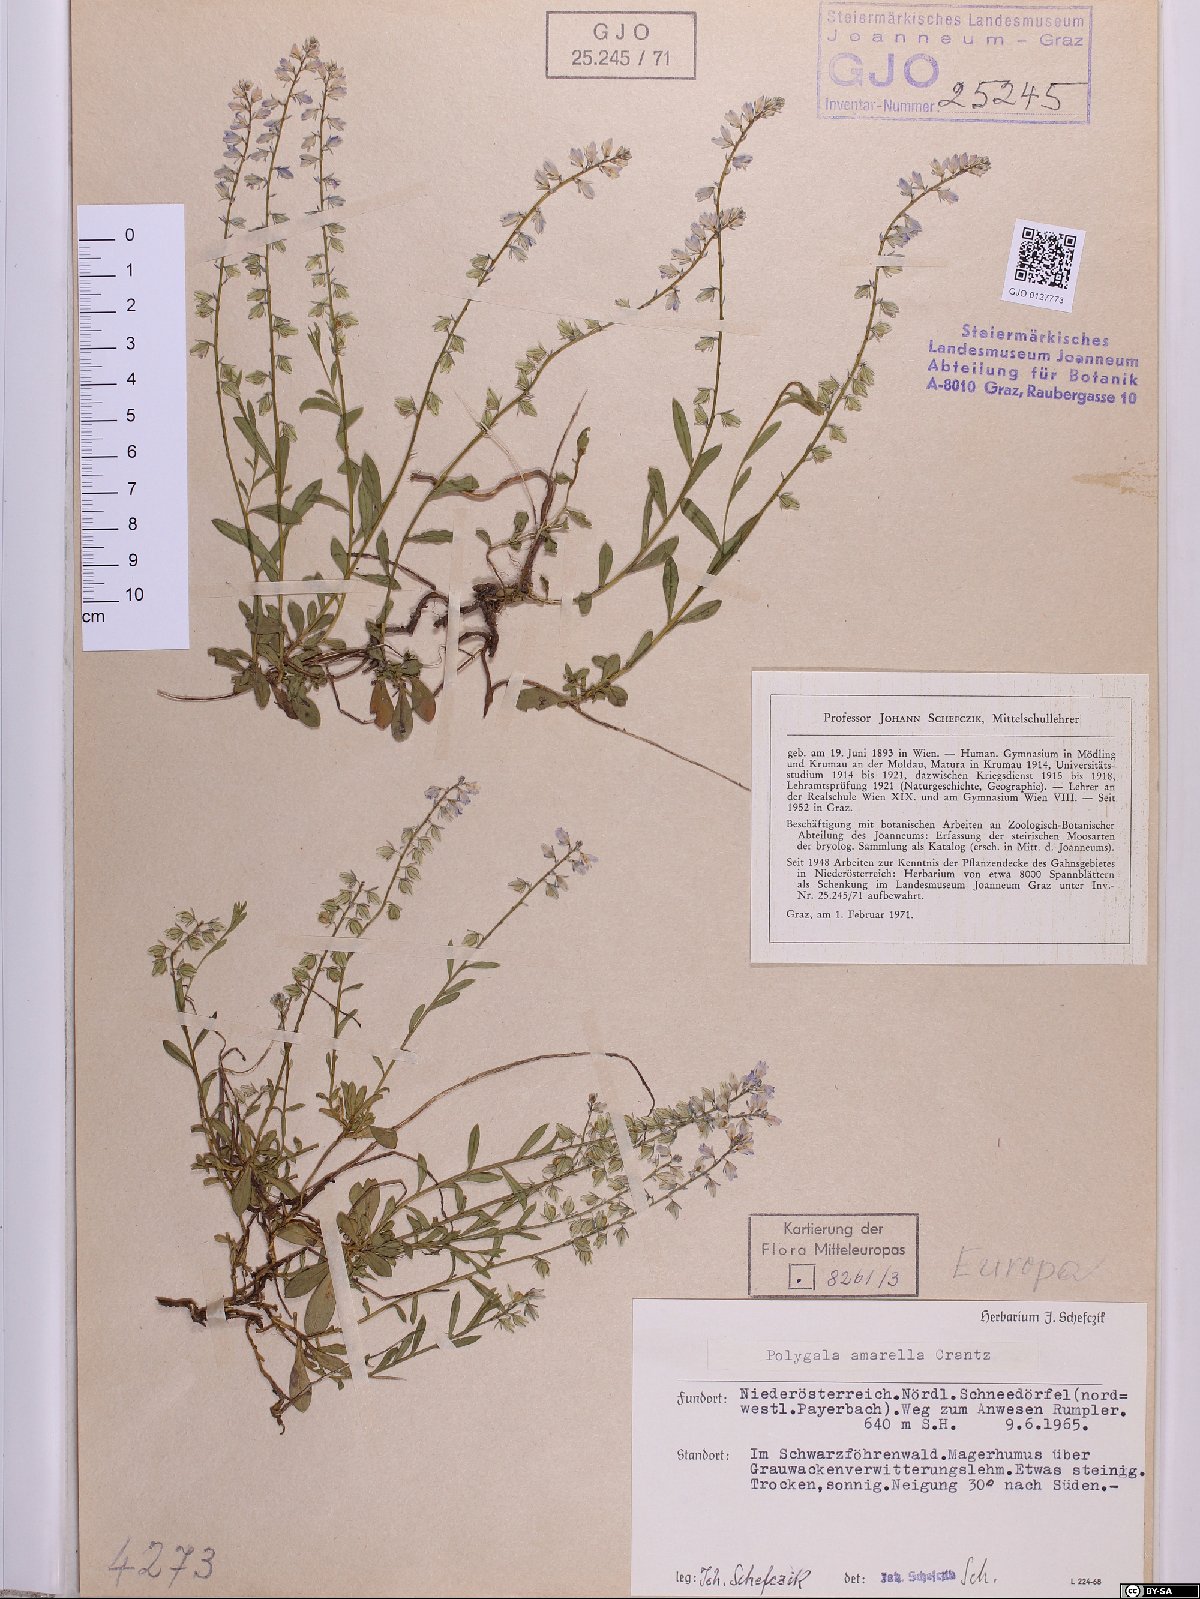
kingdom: Plantae
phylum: Tracheophyta
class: Magnoliopsida
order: Fabales
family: Polygalaceae
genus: Polygala
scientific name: Polygala amarella
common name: Dwarf milkwort
